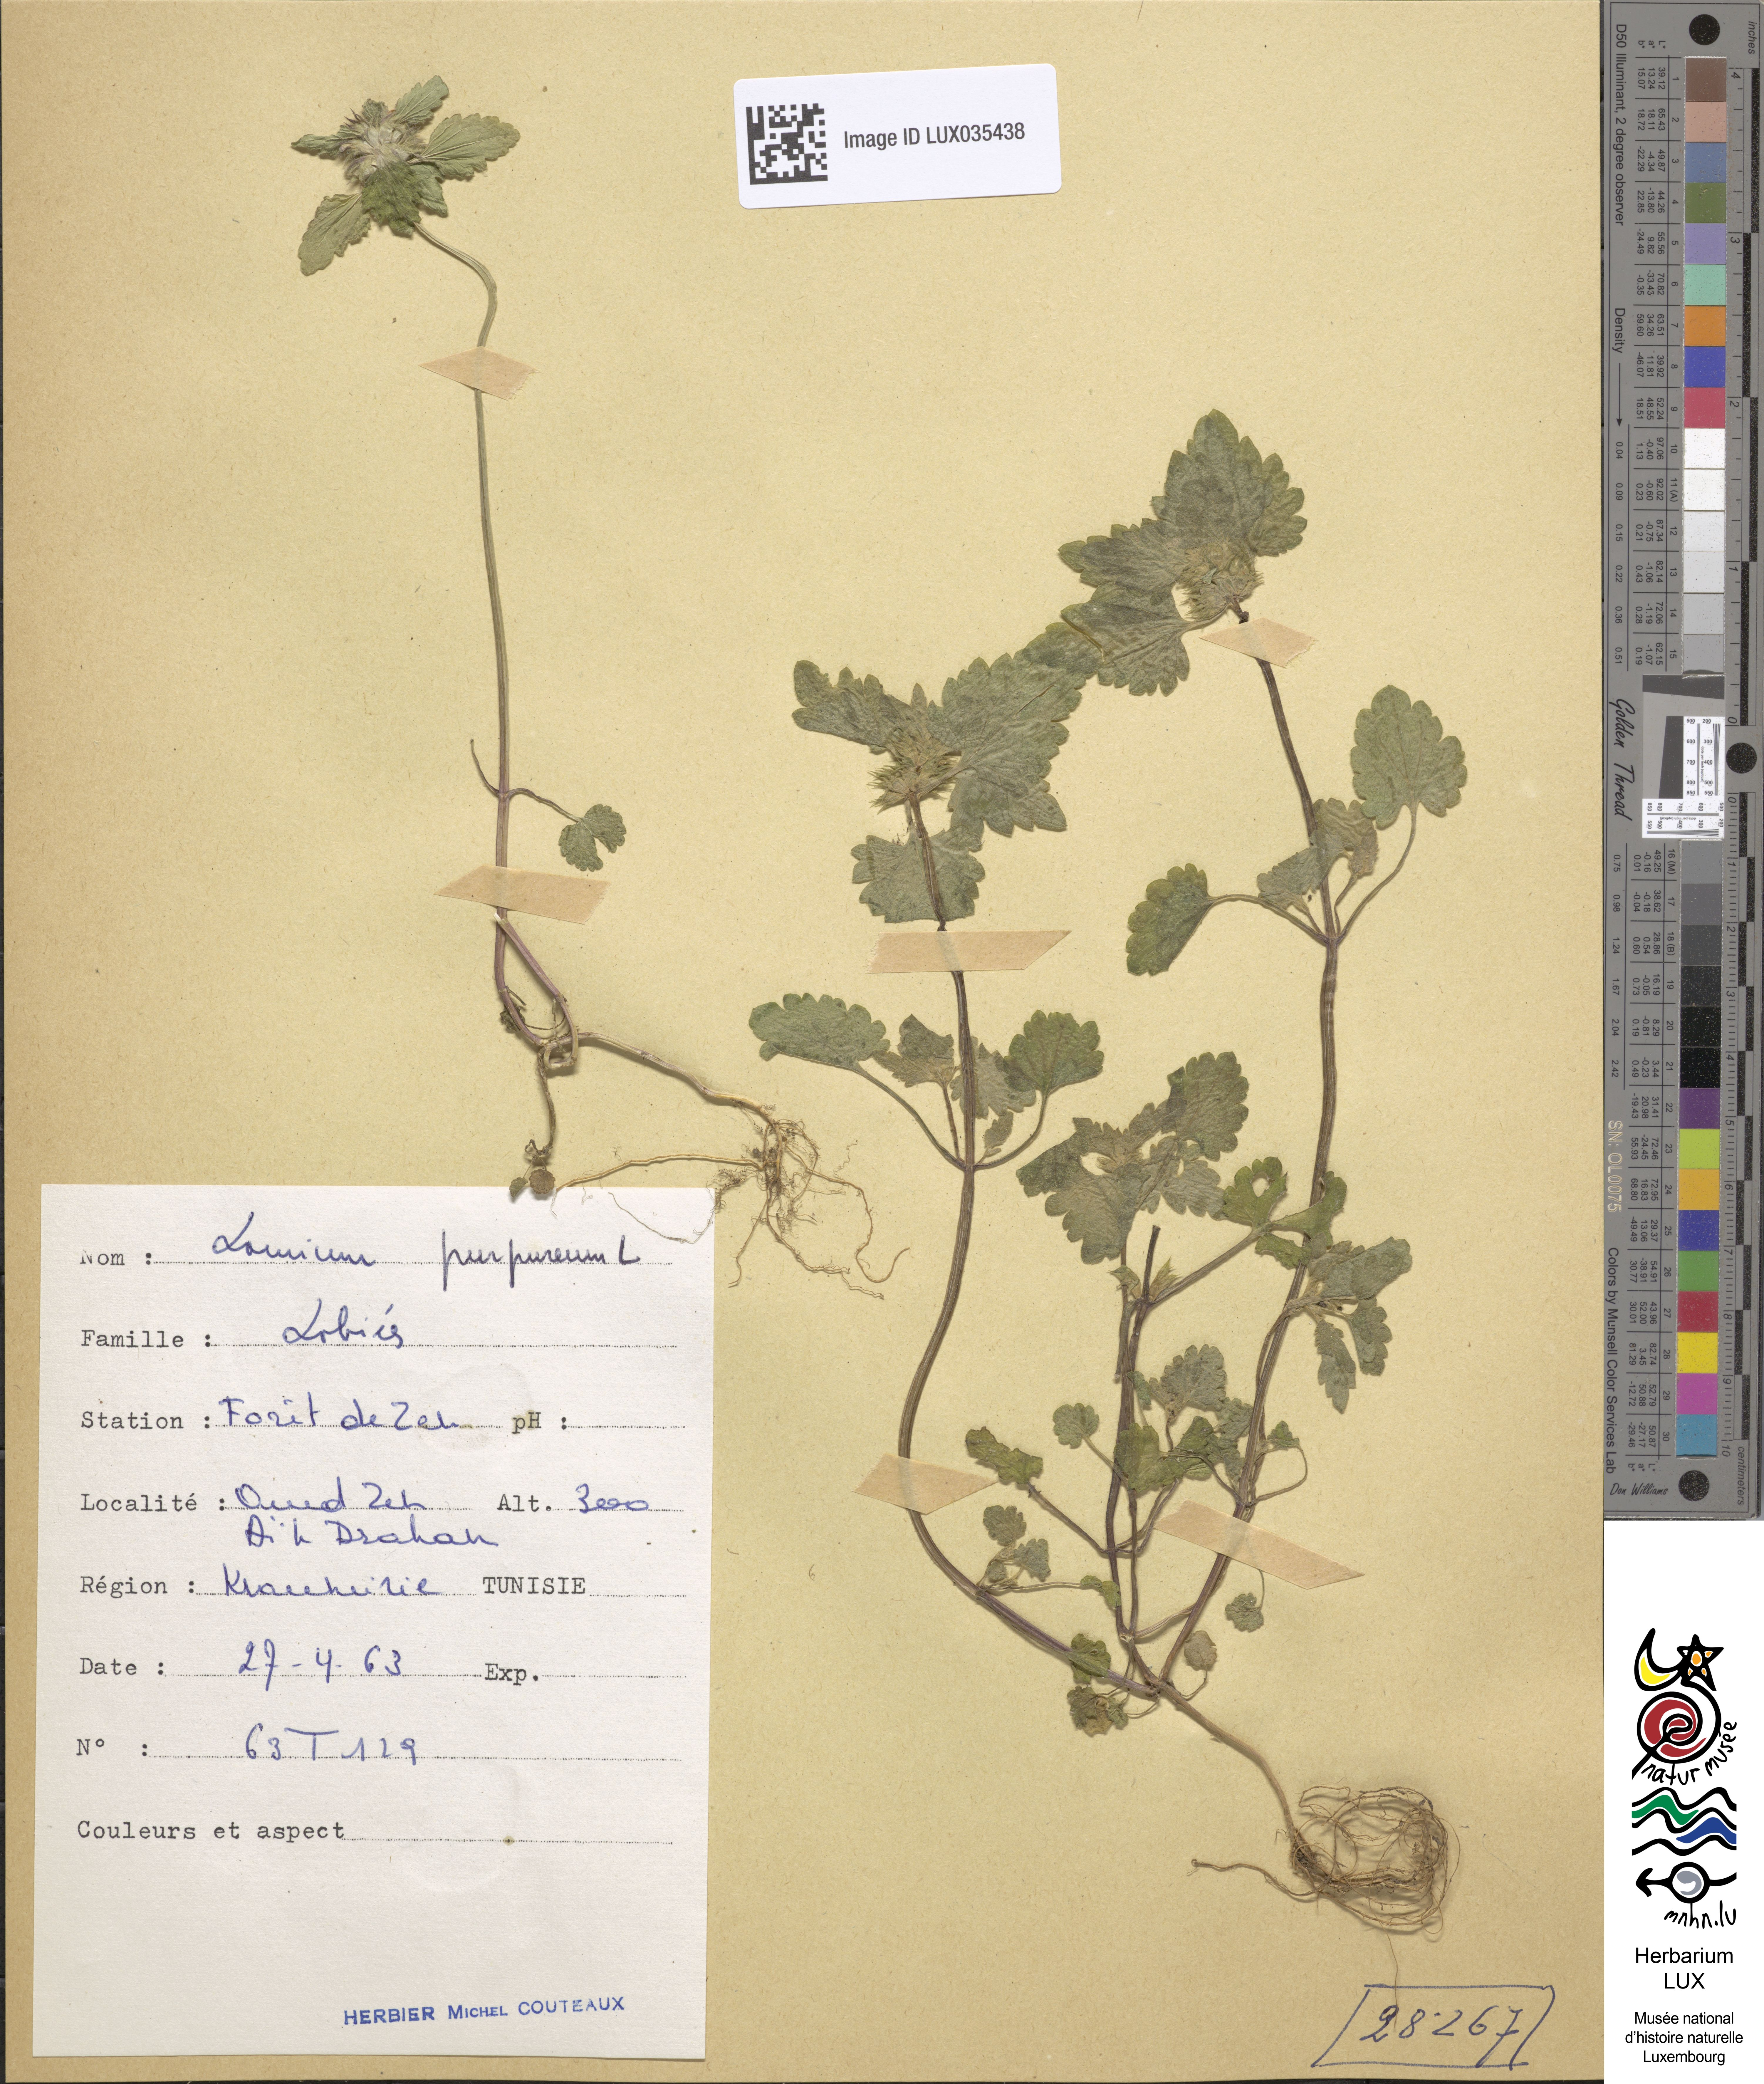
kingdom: Plantae
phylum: Tracheophyta
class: Magnoliopsida
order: Lamiales
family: Lamiaceae
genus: Lamium
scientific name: Lamium purpureum
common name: Red dead-nettle
